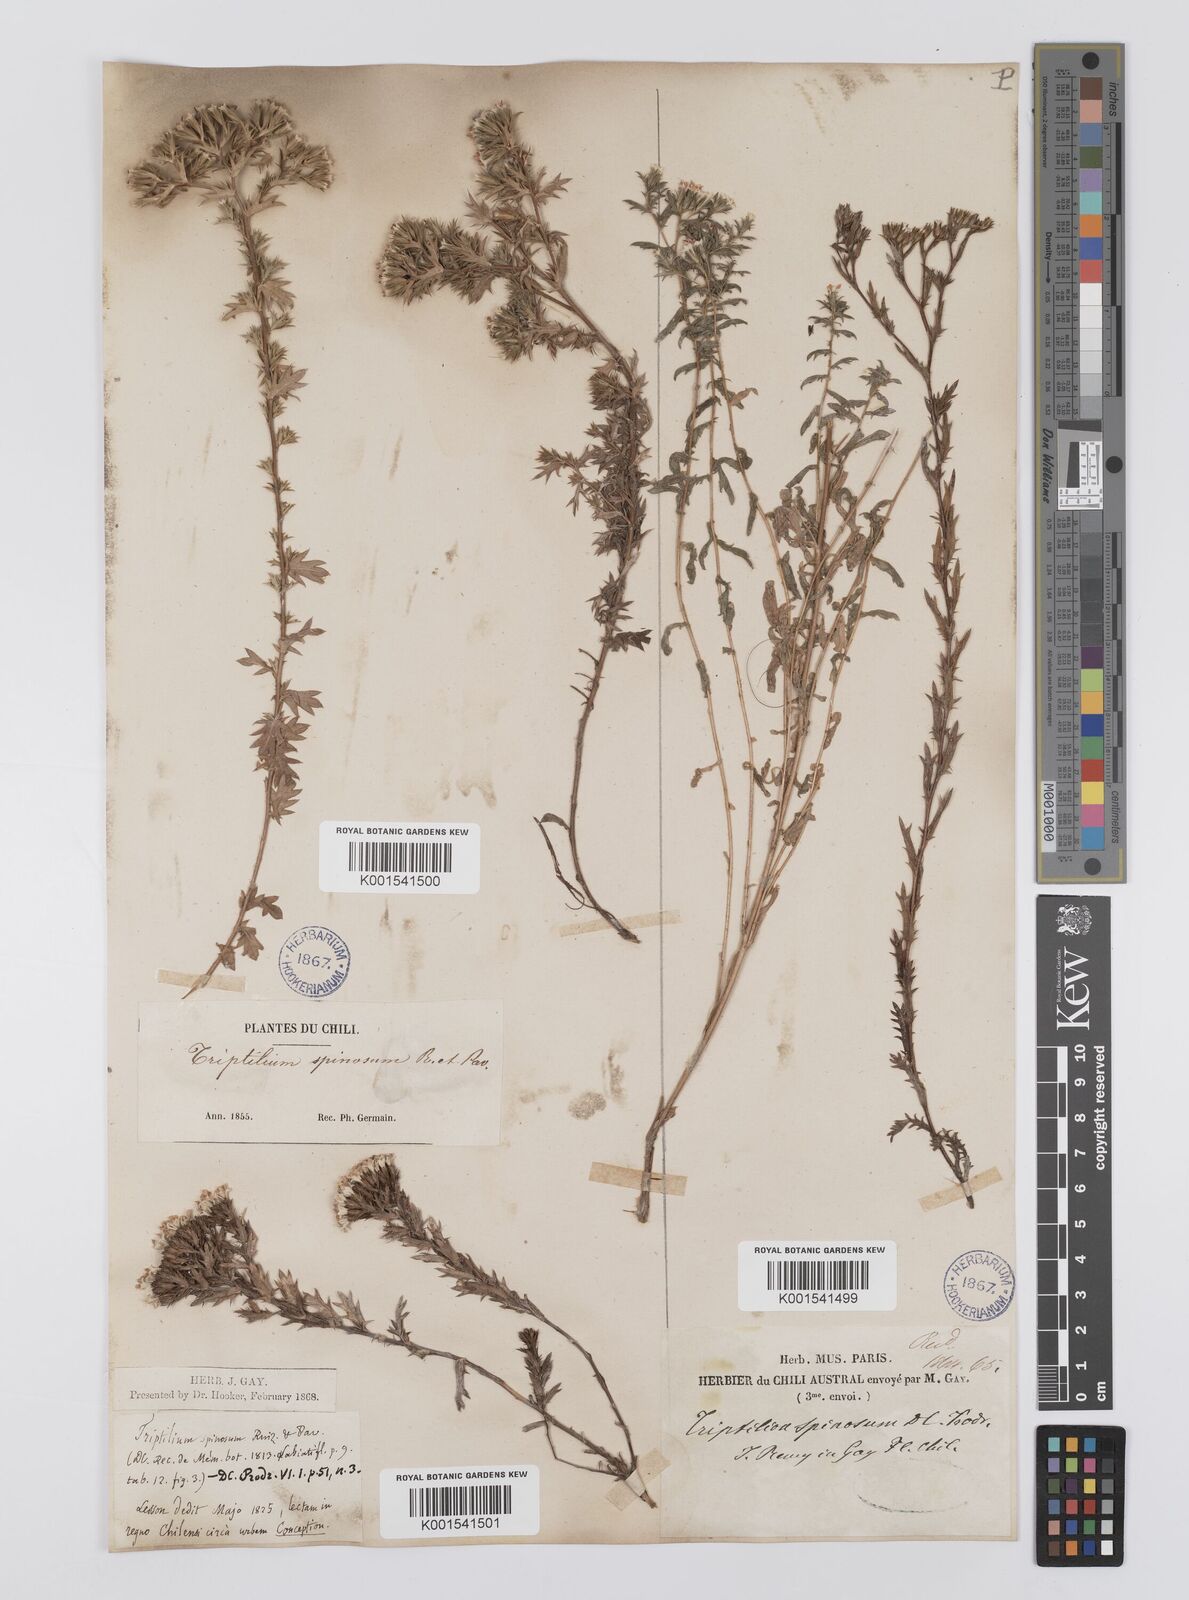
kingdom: Plantae
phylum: Tracheophyta
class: Magnoliopsida
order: Asterales
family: Asteraceae
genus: Triptilion
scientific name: Triptilion spinosum
